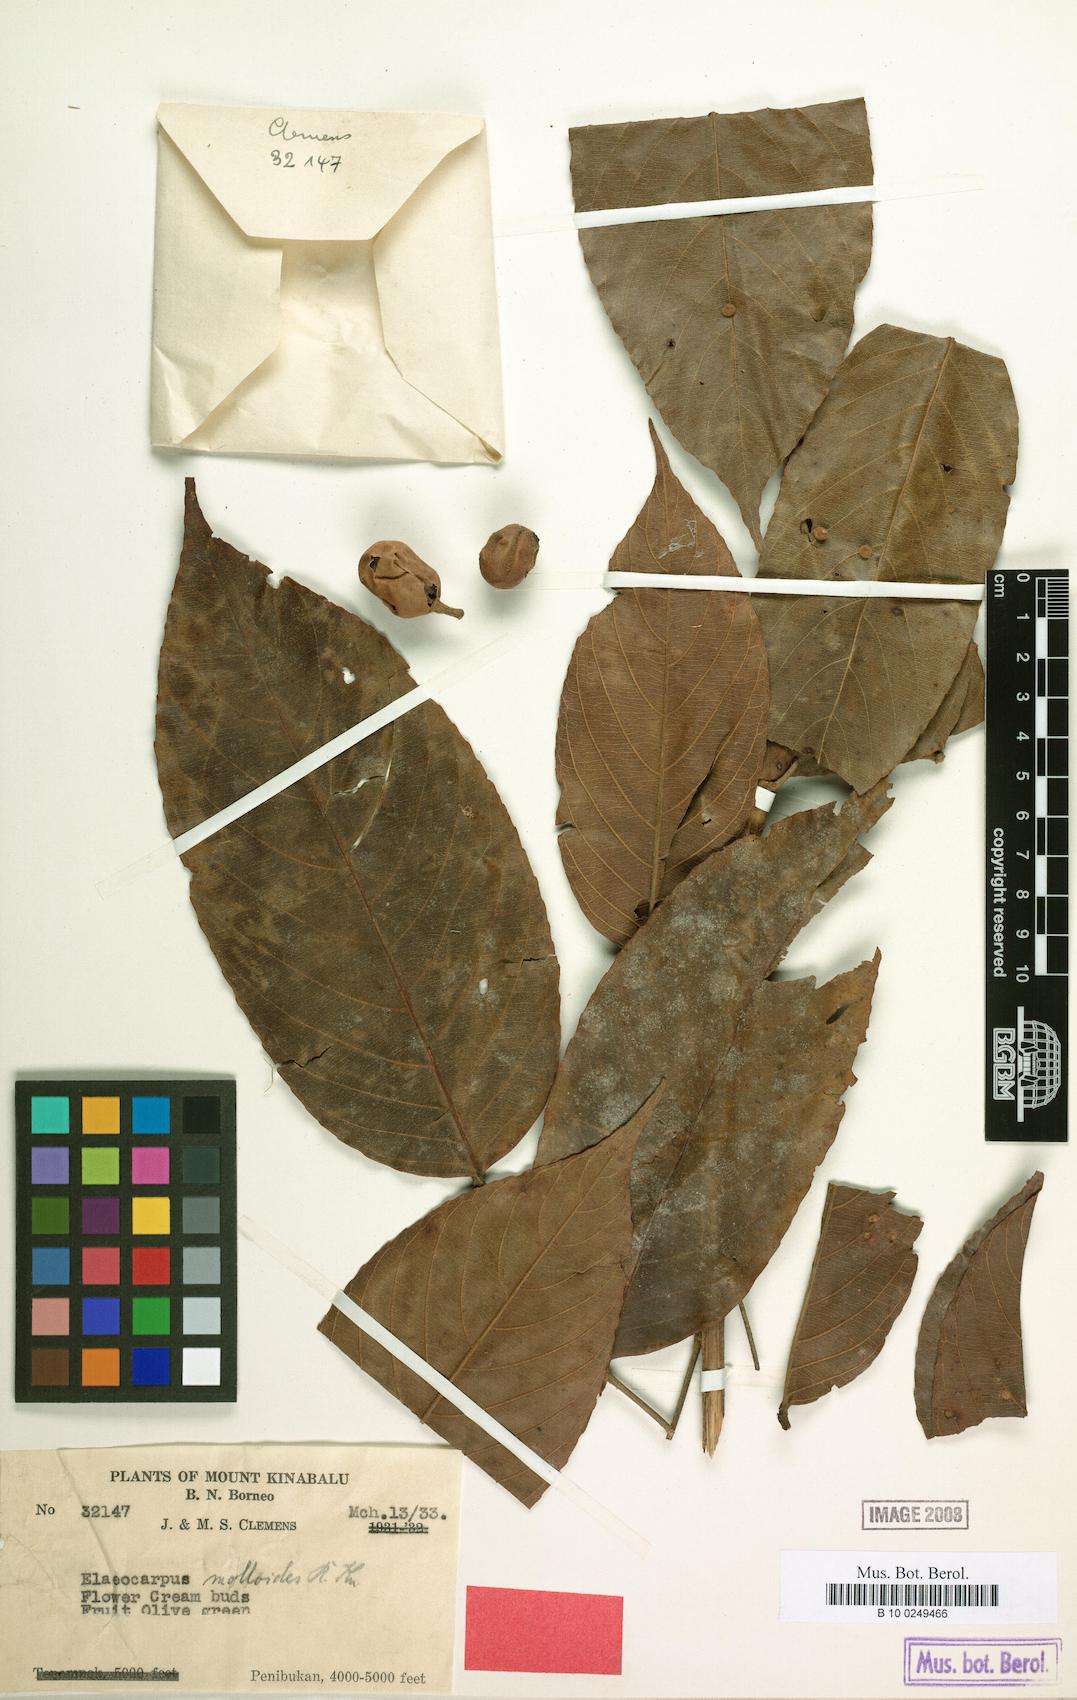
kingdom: Plantae
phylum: Tracheophyta
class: Magnoliopsida
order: Oxalidales
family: Elaeocarpaceae
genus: Elaeocarpus
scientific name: Elaeocarpus clementis
